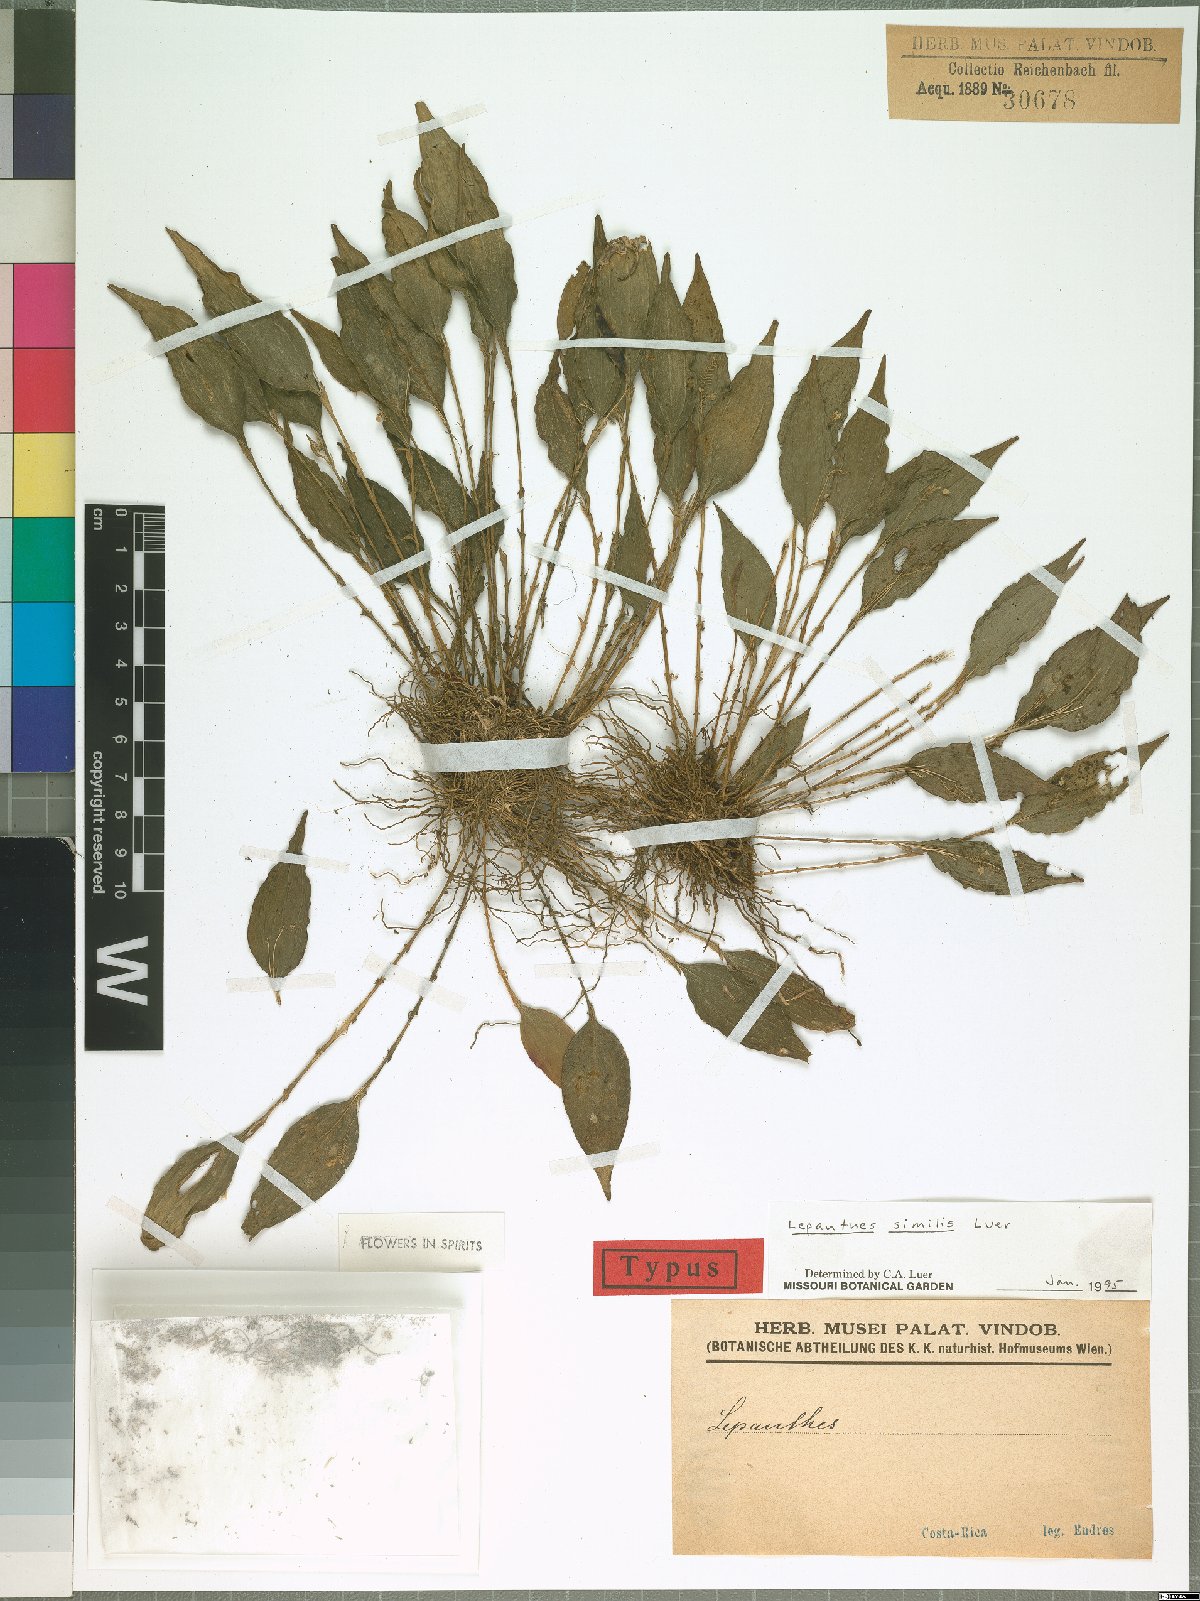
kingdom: Plantae
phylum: Tracheophyta
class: Liliopsida
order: Asparagales
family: Orchidaceae
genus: Lepanthes
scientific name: Lepanthes similis
